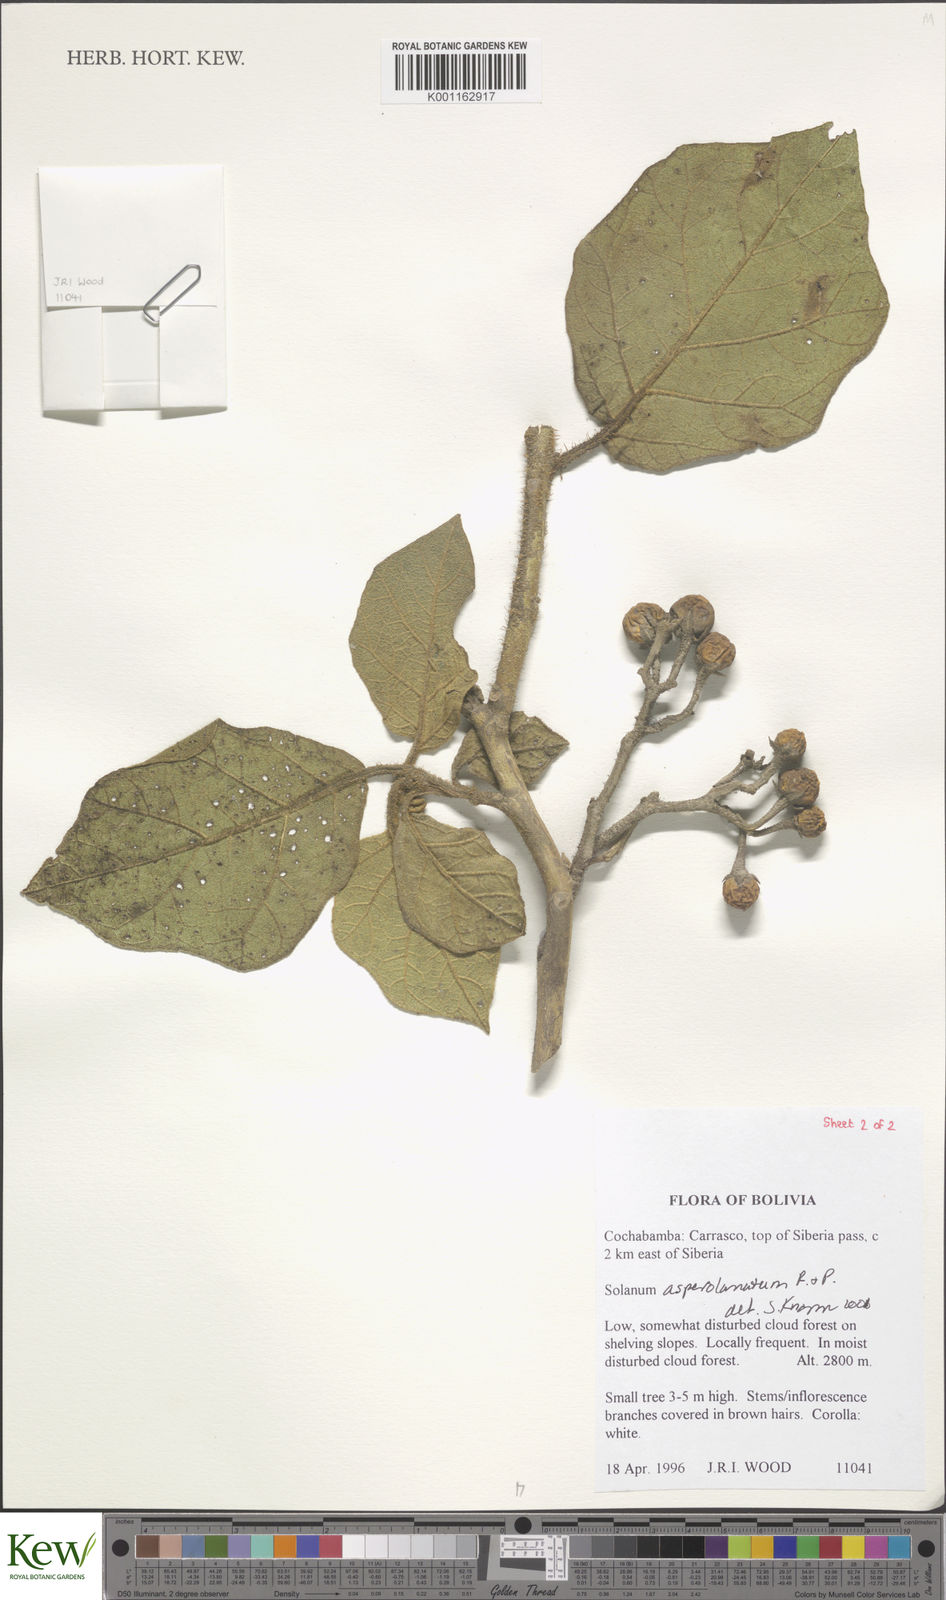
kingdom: Plantae
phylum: Tracheophyta
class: Magnoliopsida
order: Solanales
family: Solanaceae
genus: Solanum
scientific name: Solanum asperolanatum
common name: Devil's-fig
